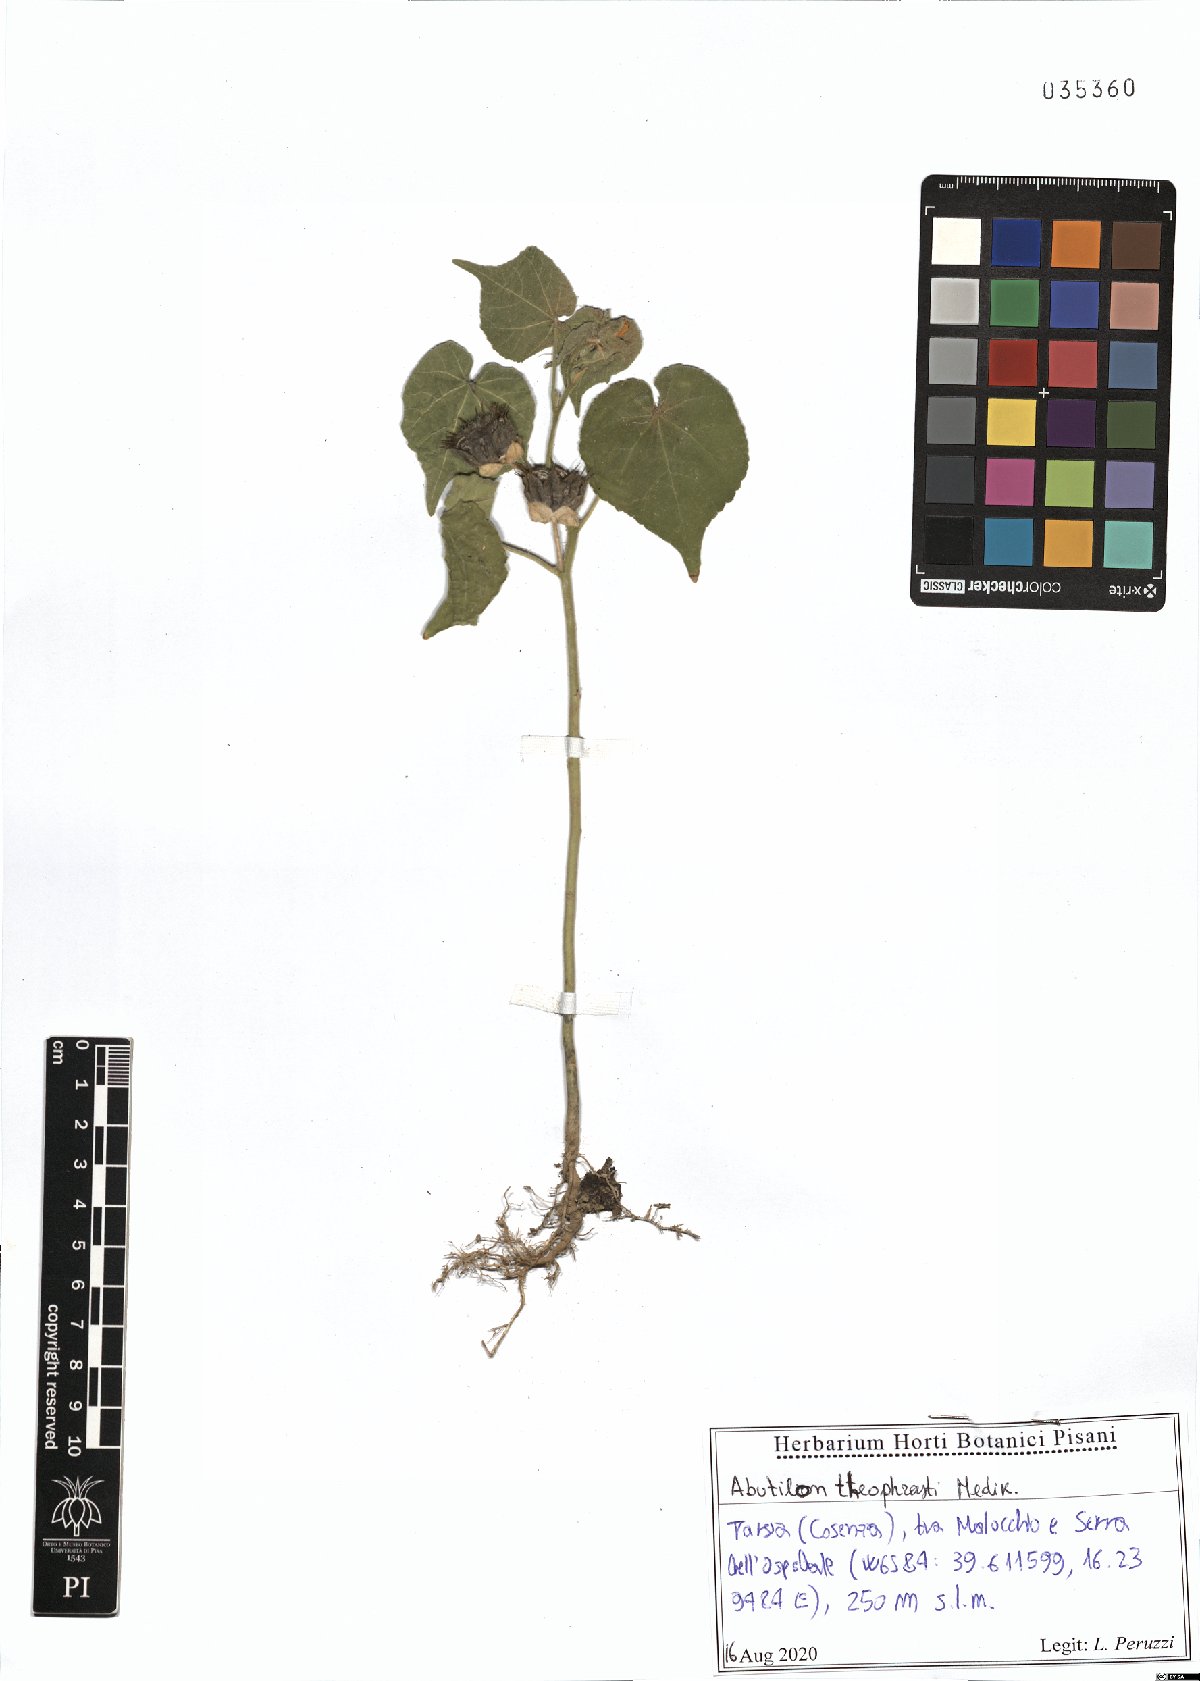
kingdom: Plantae
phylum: Tracheophyta
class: Magnoliopsida
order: Malvales
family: Malvaceae
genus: Abutilon
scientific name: Abutilon theophrasti
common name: Velvetleaf
